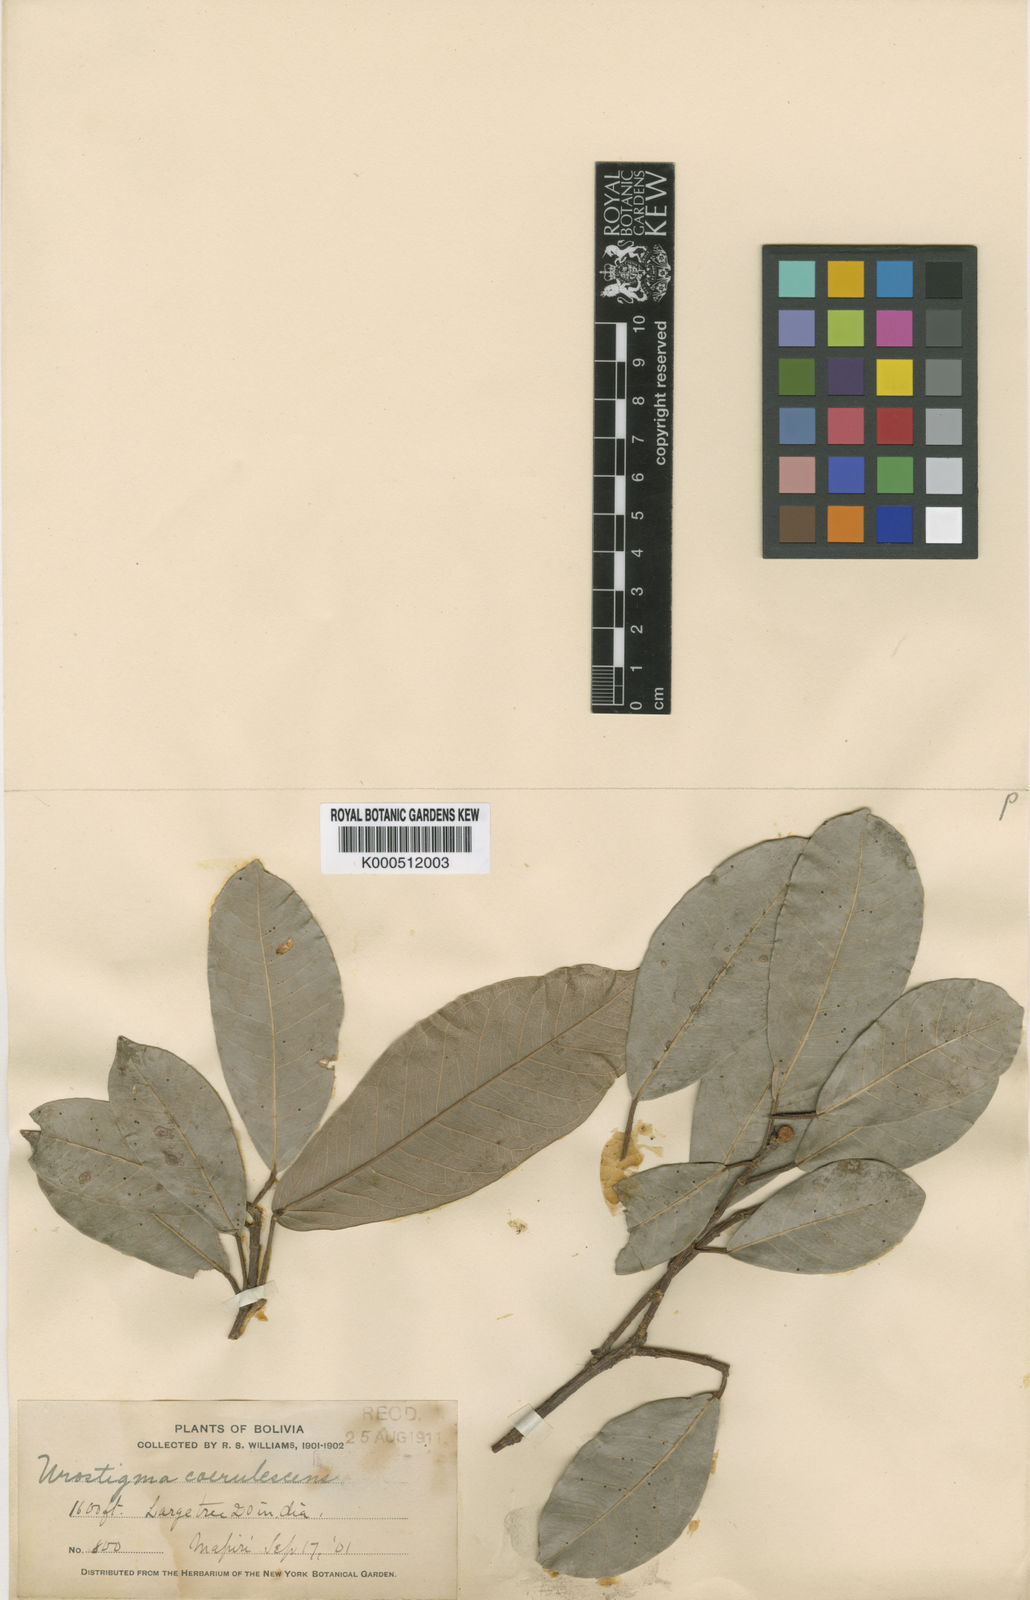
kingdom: Plantae
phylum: Tracheophyta
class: Magnoliopsida
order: Rosales
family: Moraceae
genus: Ficus
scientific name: Ficus coerulescens
